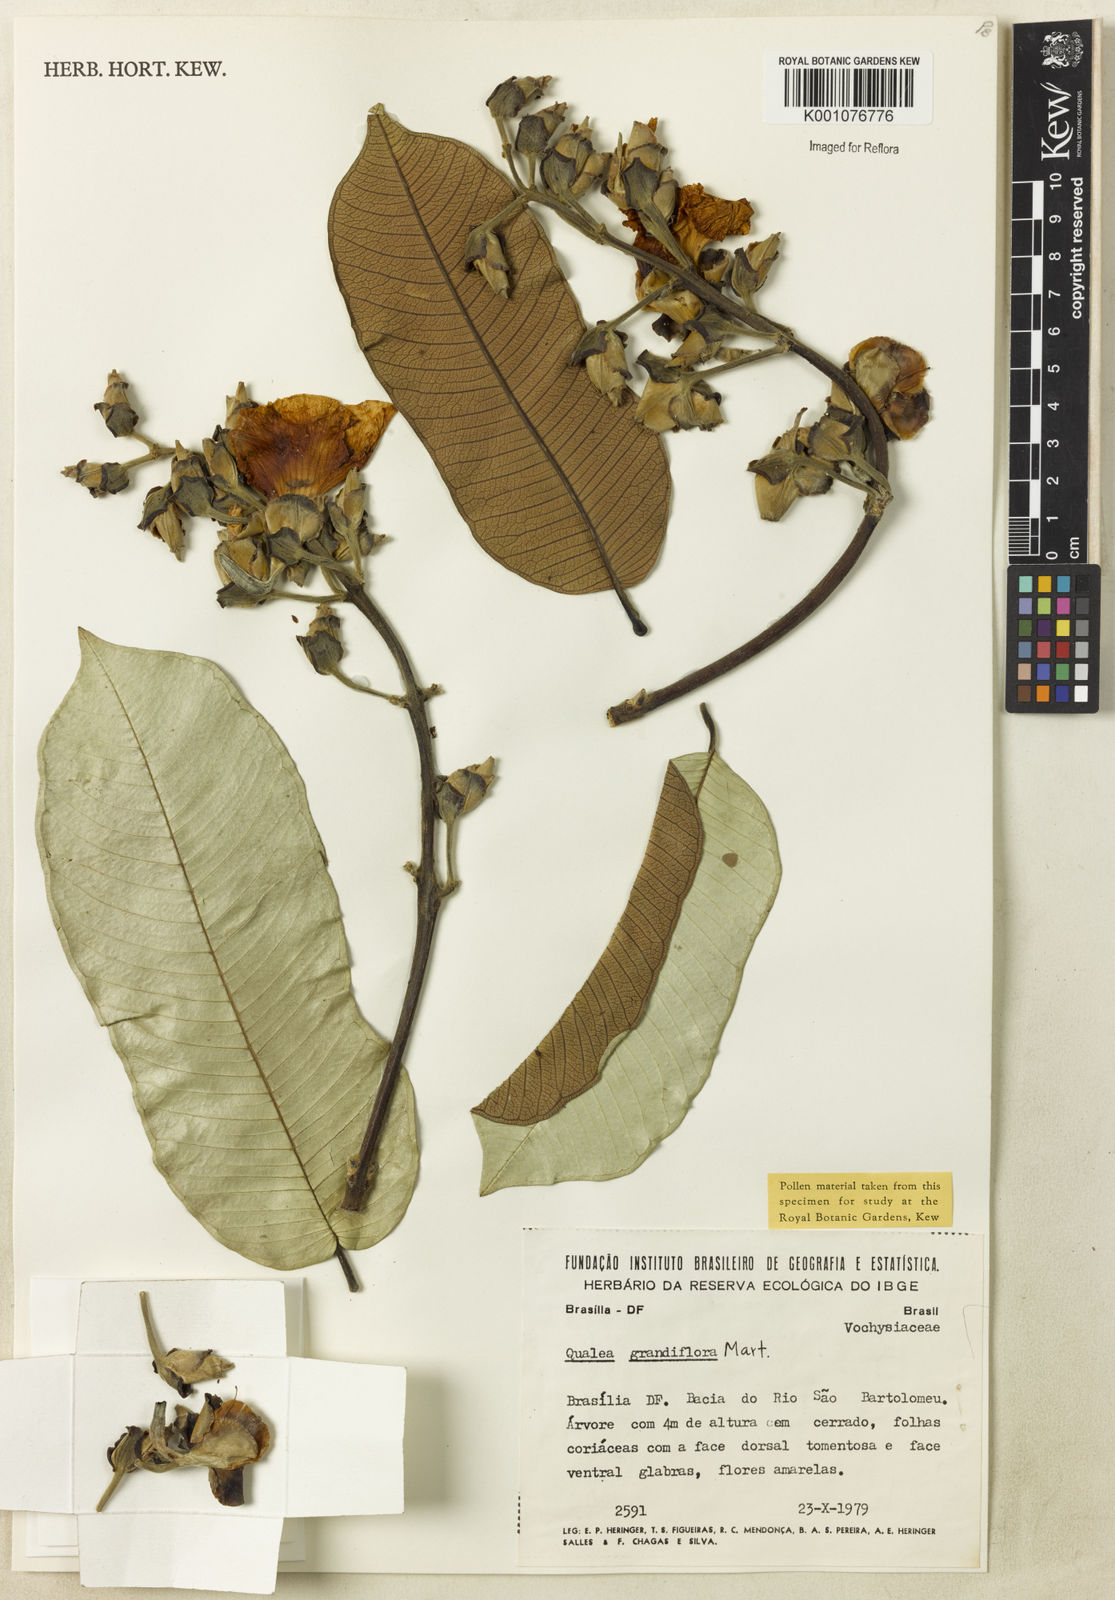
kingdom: Plantae
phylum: Tracheophyta
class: Magnoliopsida
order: Myrtales
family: Vochysiaceae
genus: Qualea
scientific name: Qualea grandiflora
